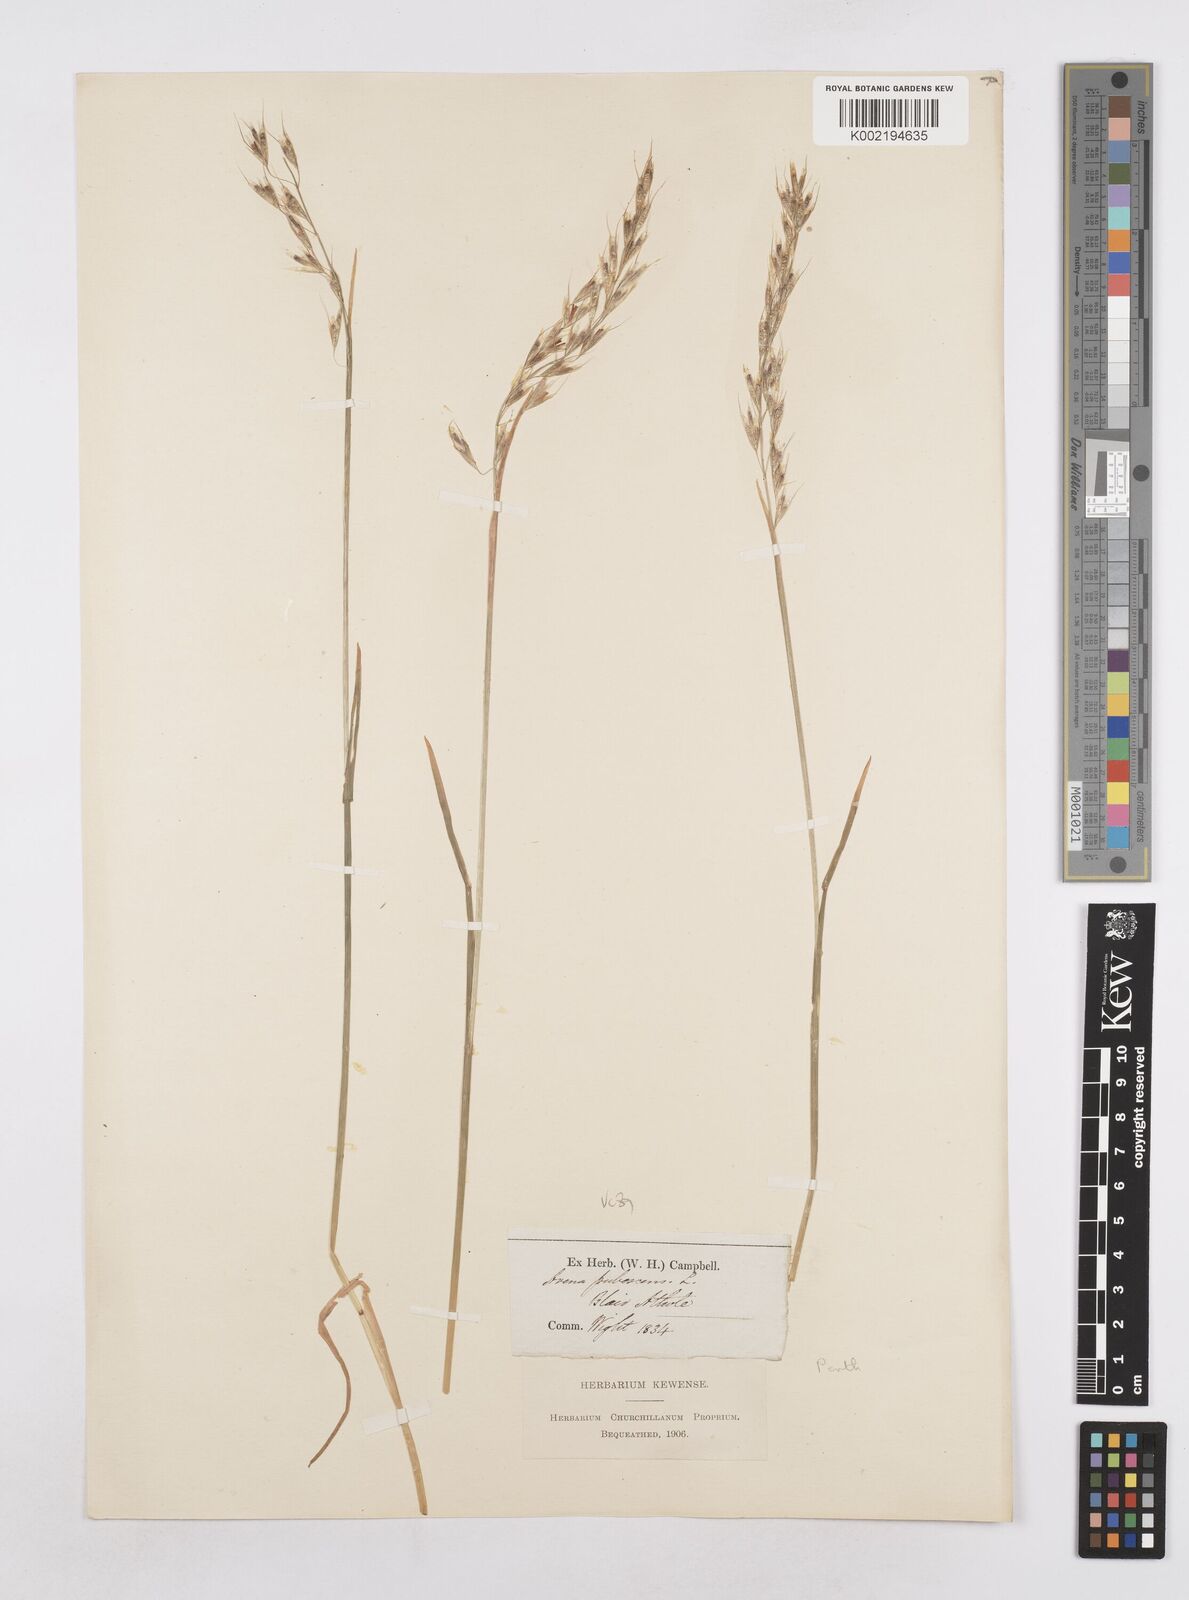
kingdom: Plantae
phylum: Tracheophyta
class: Liliopsida
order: Poales
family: Poaceae
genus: Avenula
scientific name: Avenula pubescens
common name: Downy alpine oatgrass
